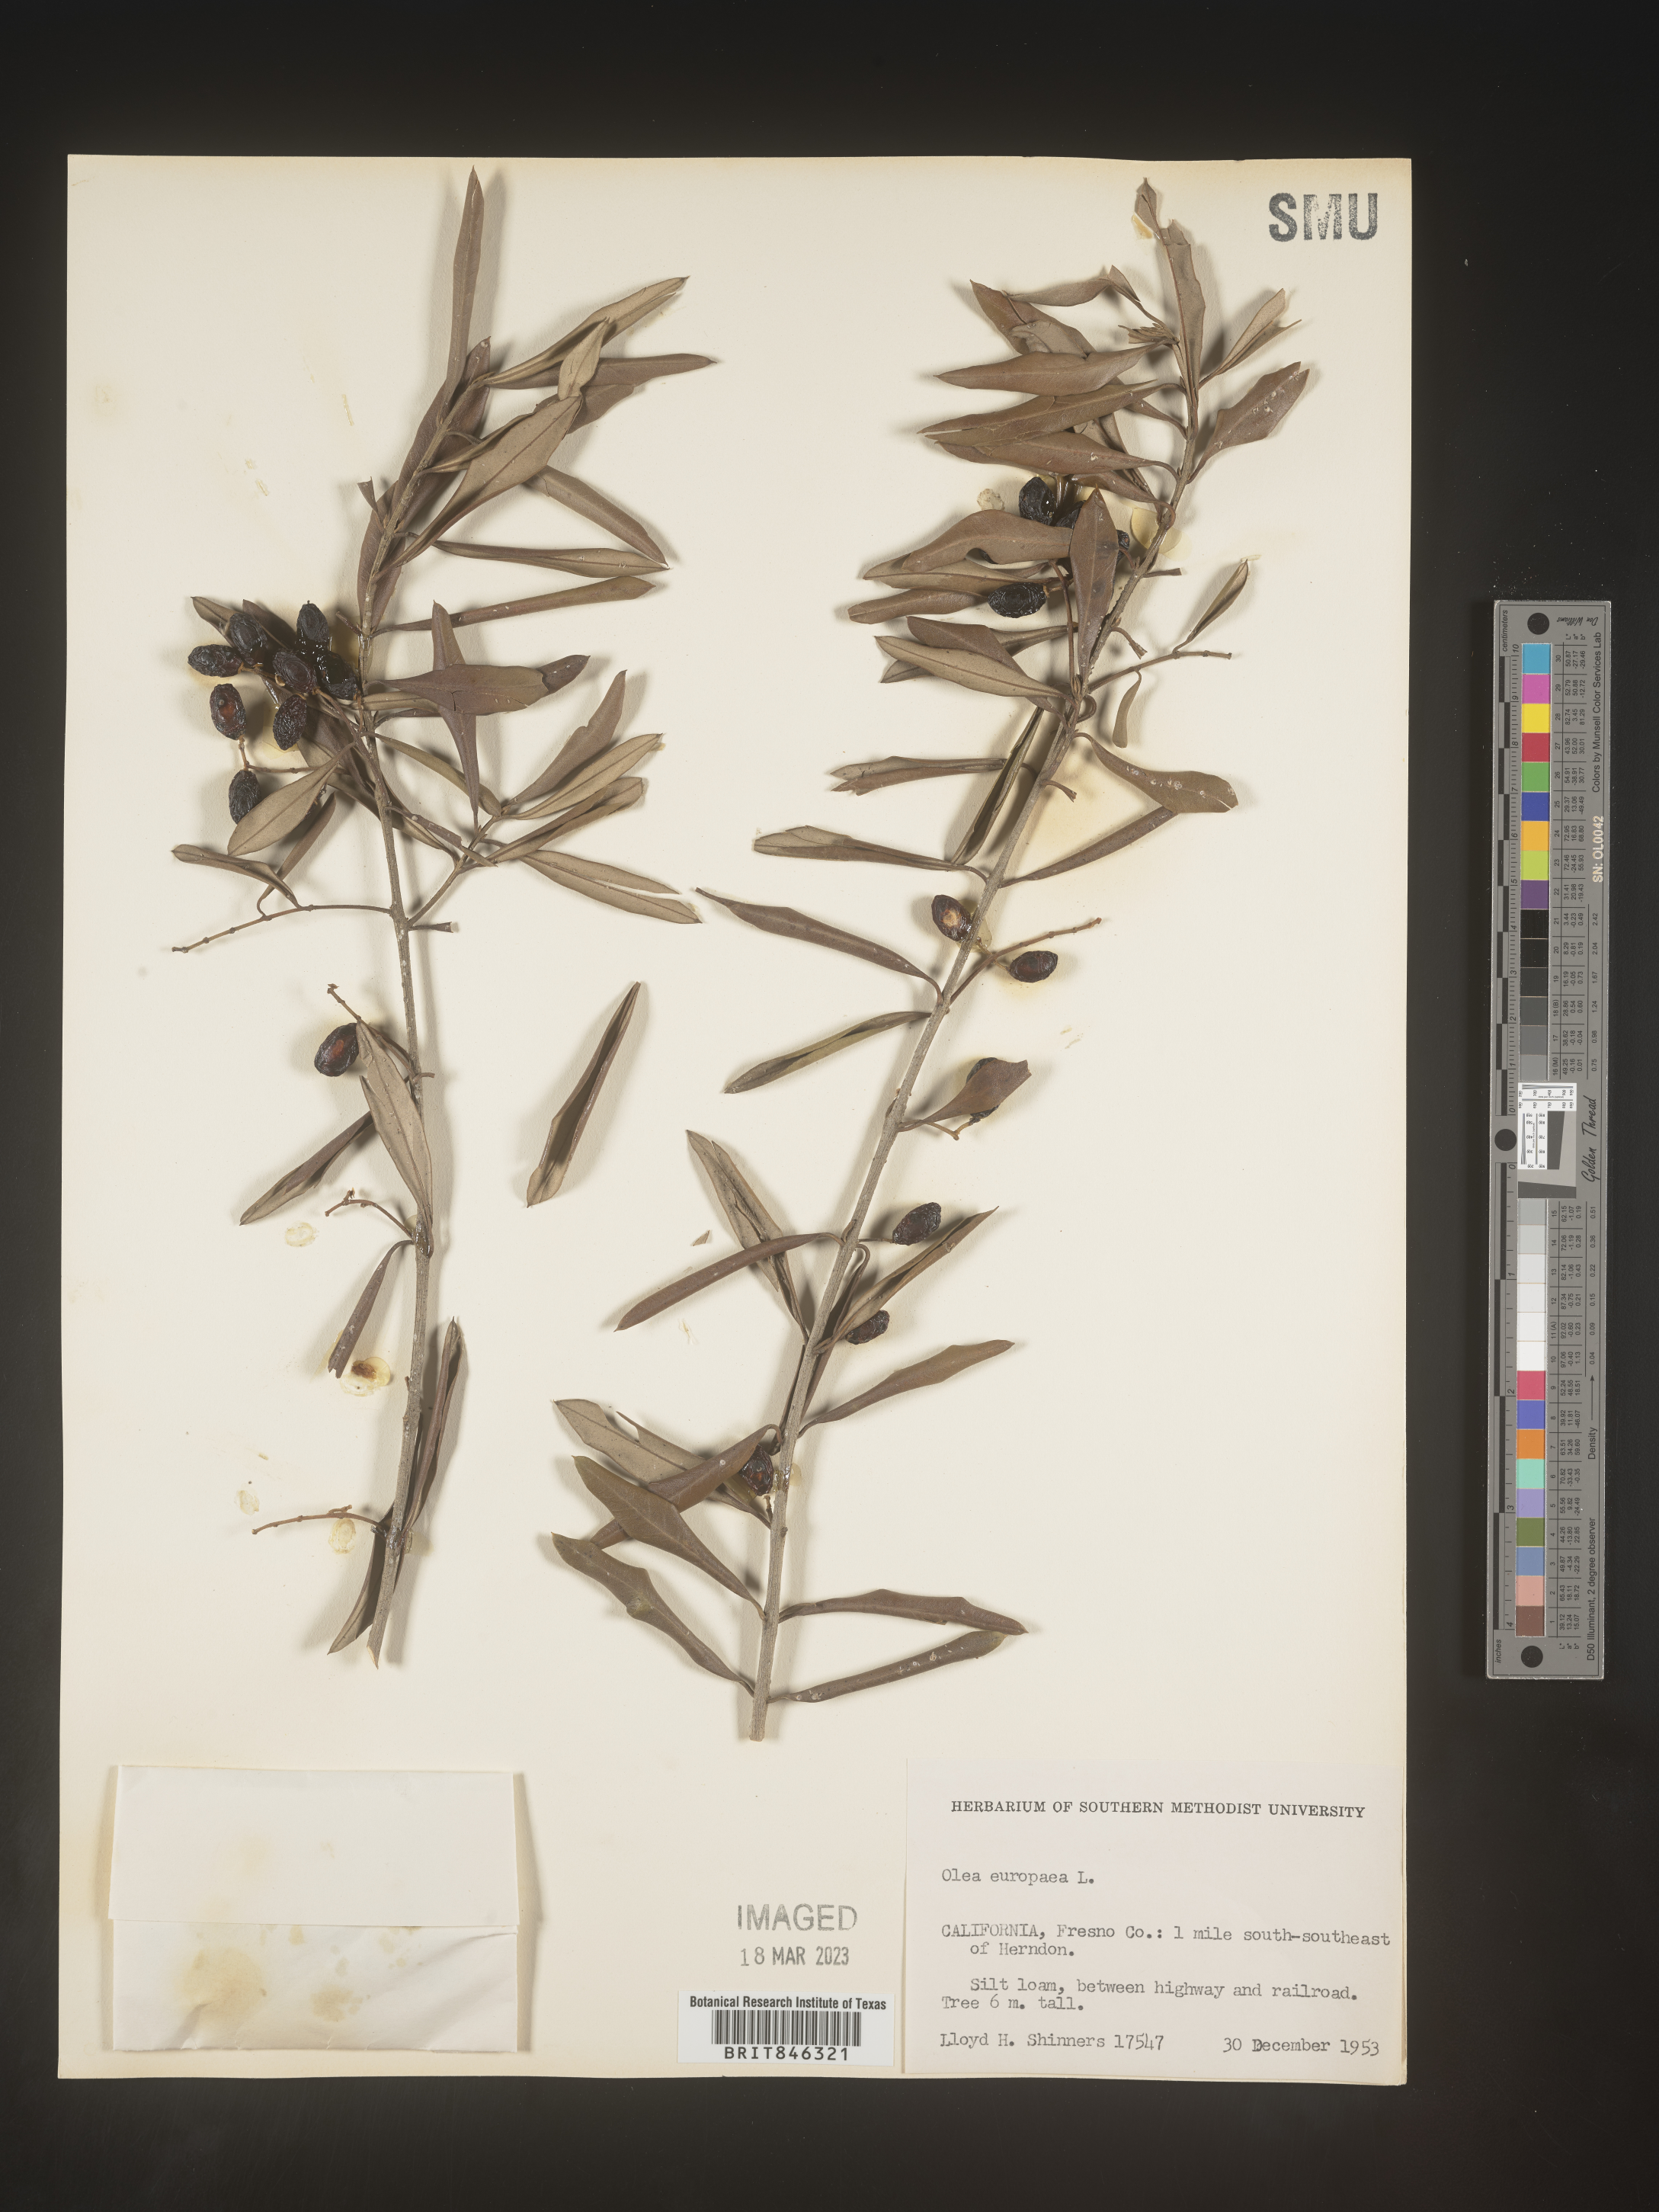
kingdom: Plantae
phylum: Tracheophyta
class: Magnoliopsida
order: Lamiales
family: Oleaceae
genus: Olea
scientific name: Olea
